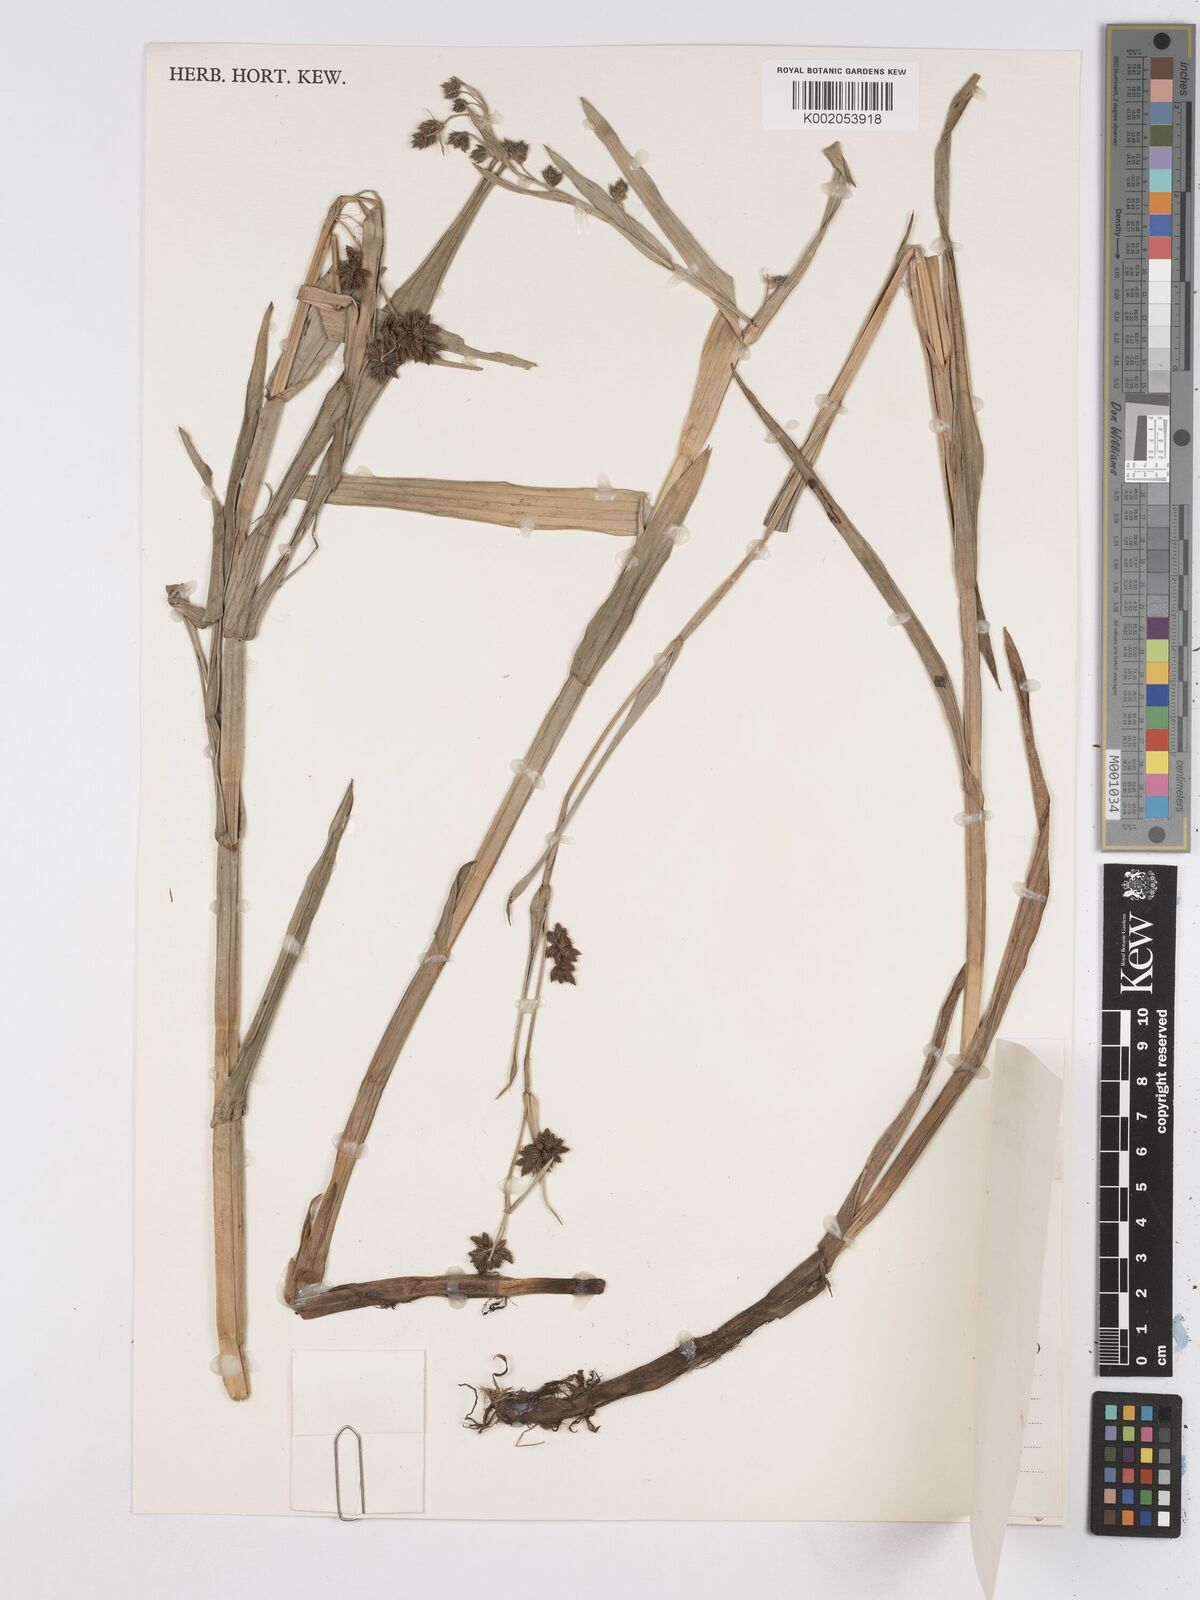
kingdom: Plantae
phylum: Tracheophyta
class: Liliopsida
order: Poales
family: Cyperaceae
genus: Fuirena
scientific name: Fuirena umbellata
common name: Yefen
